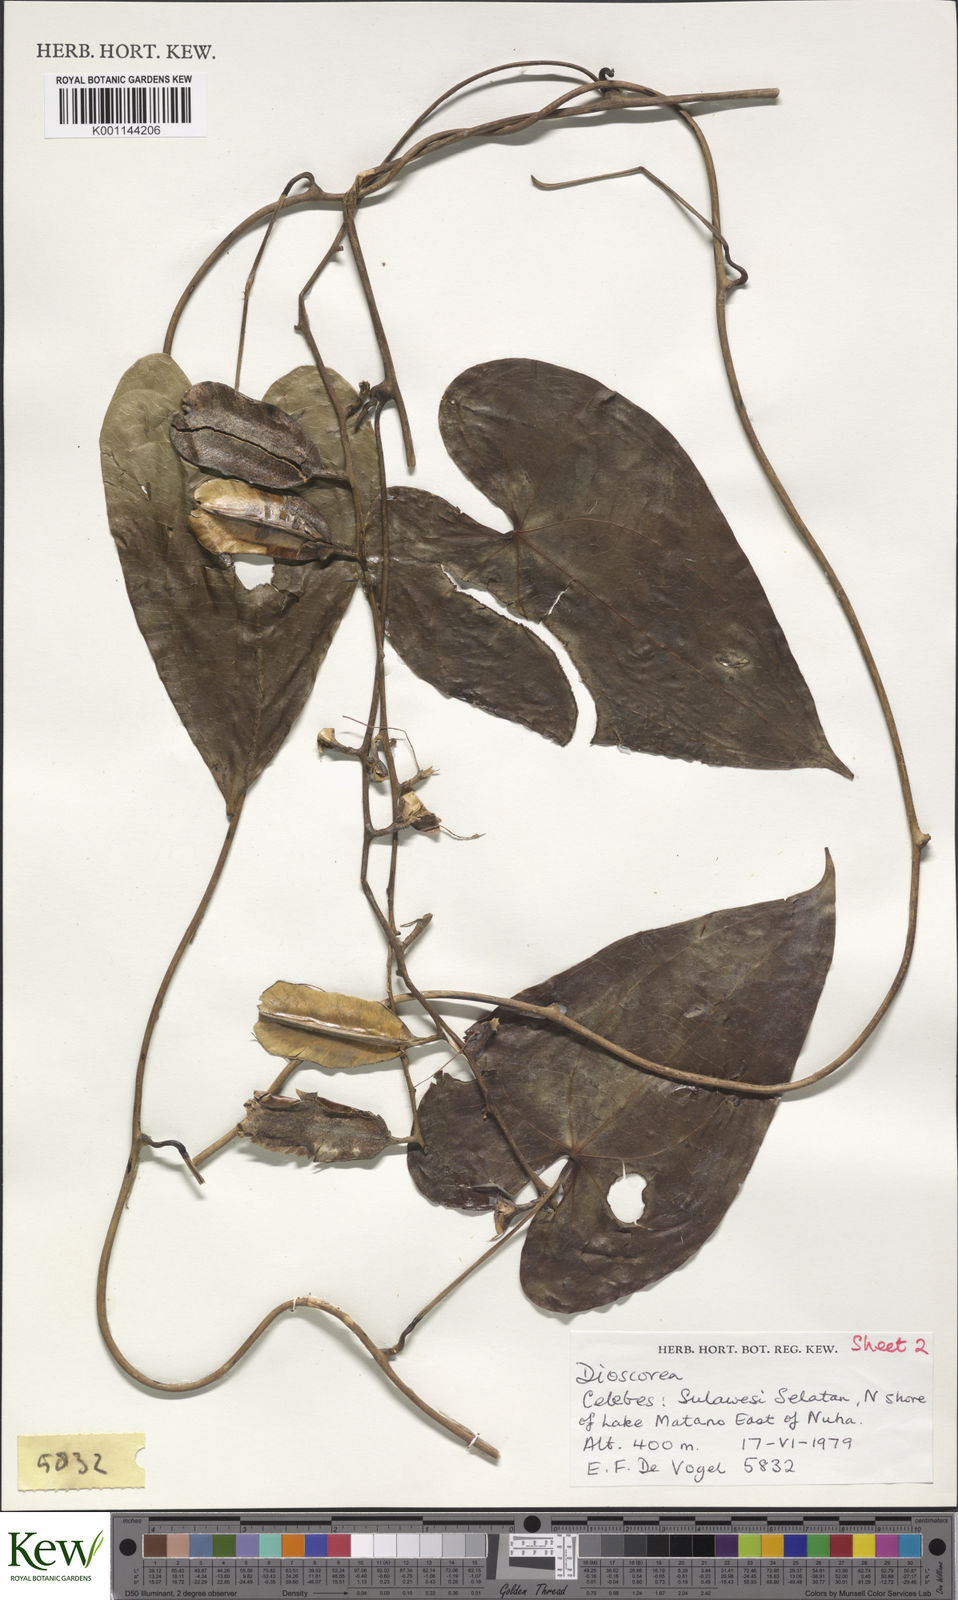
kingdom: Plantae
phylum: Tracheophyta
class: Liliopsida
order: Dioscoreales
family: Dioscoreaceae
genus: Dioscorea
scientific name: Dioscorea keduensis
